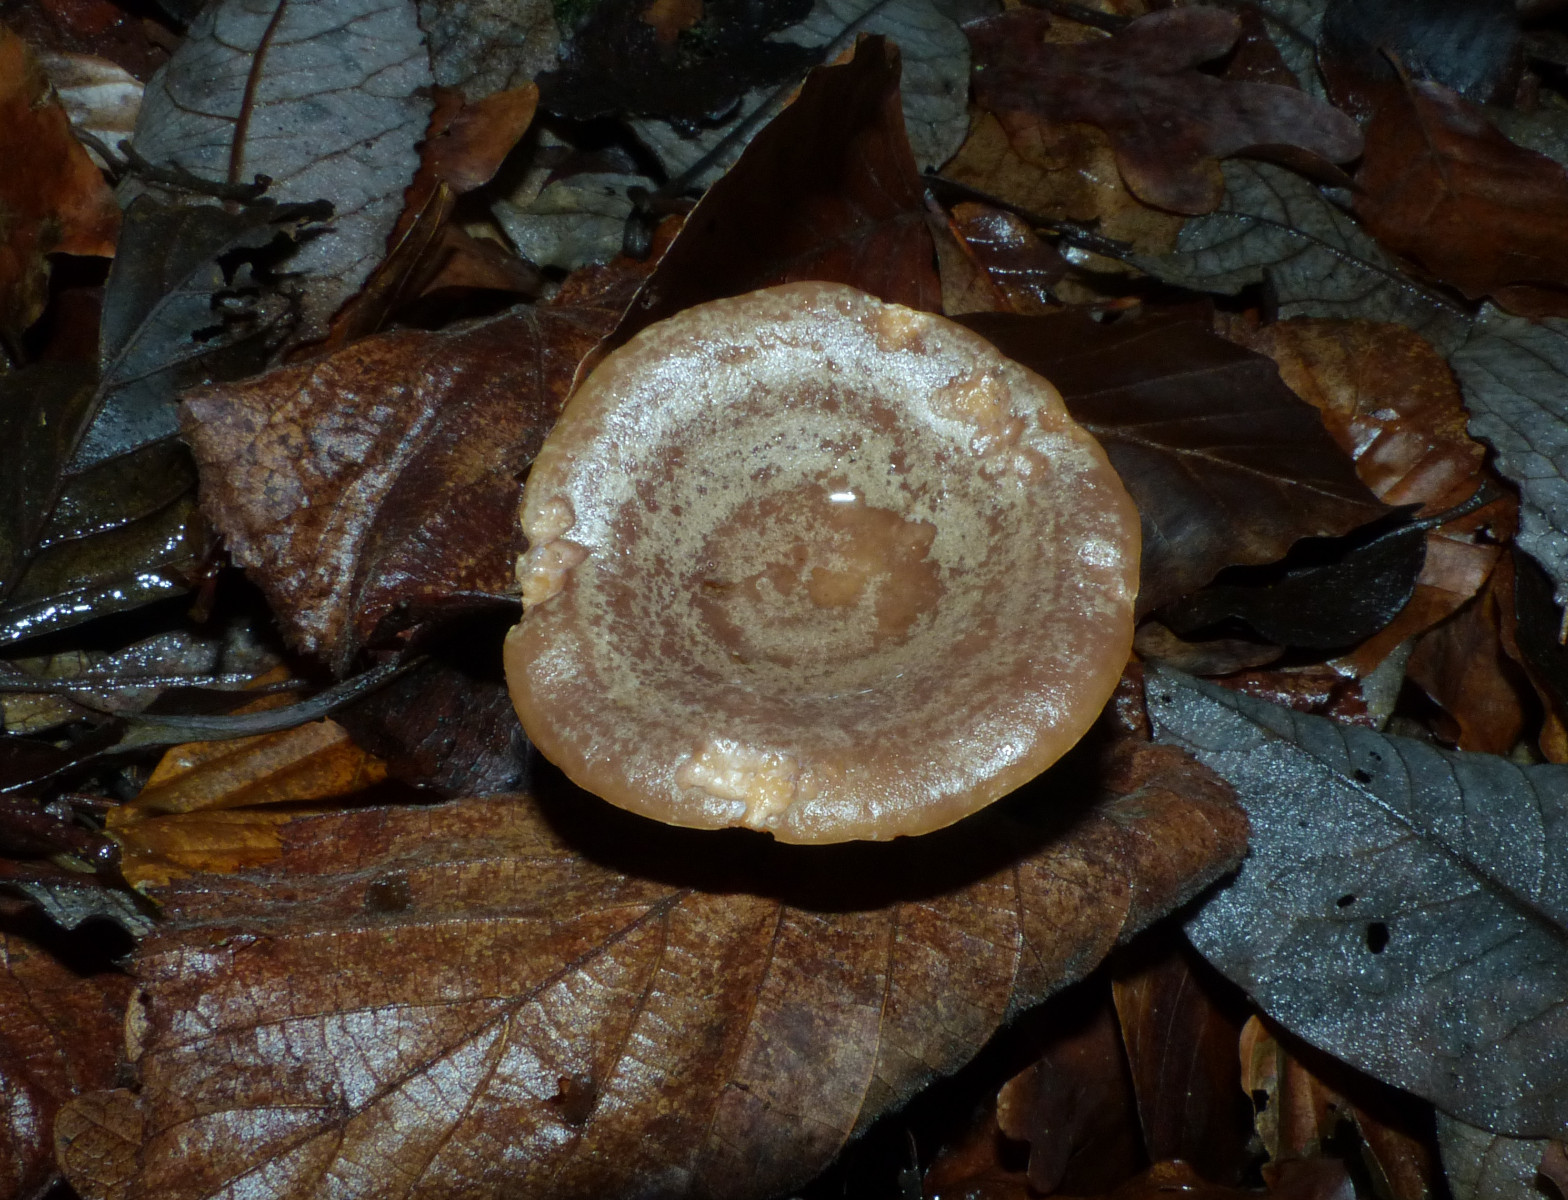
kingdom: Fungi
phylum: Basidiomycota
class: Agaricomycetes
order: Russulales
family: Russulaceae
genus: Lactarius
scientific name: Lactarius pyrogalus
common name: hassel-mælkehat
